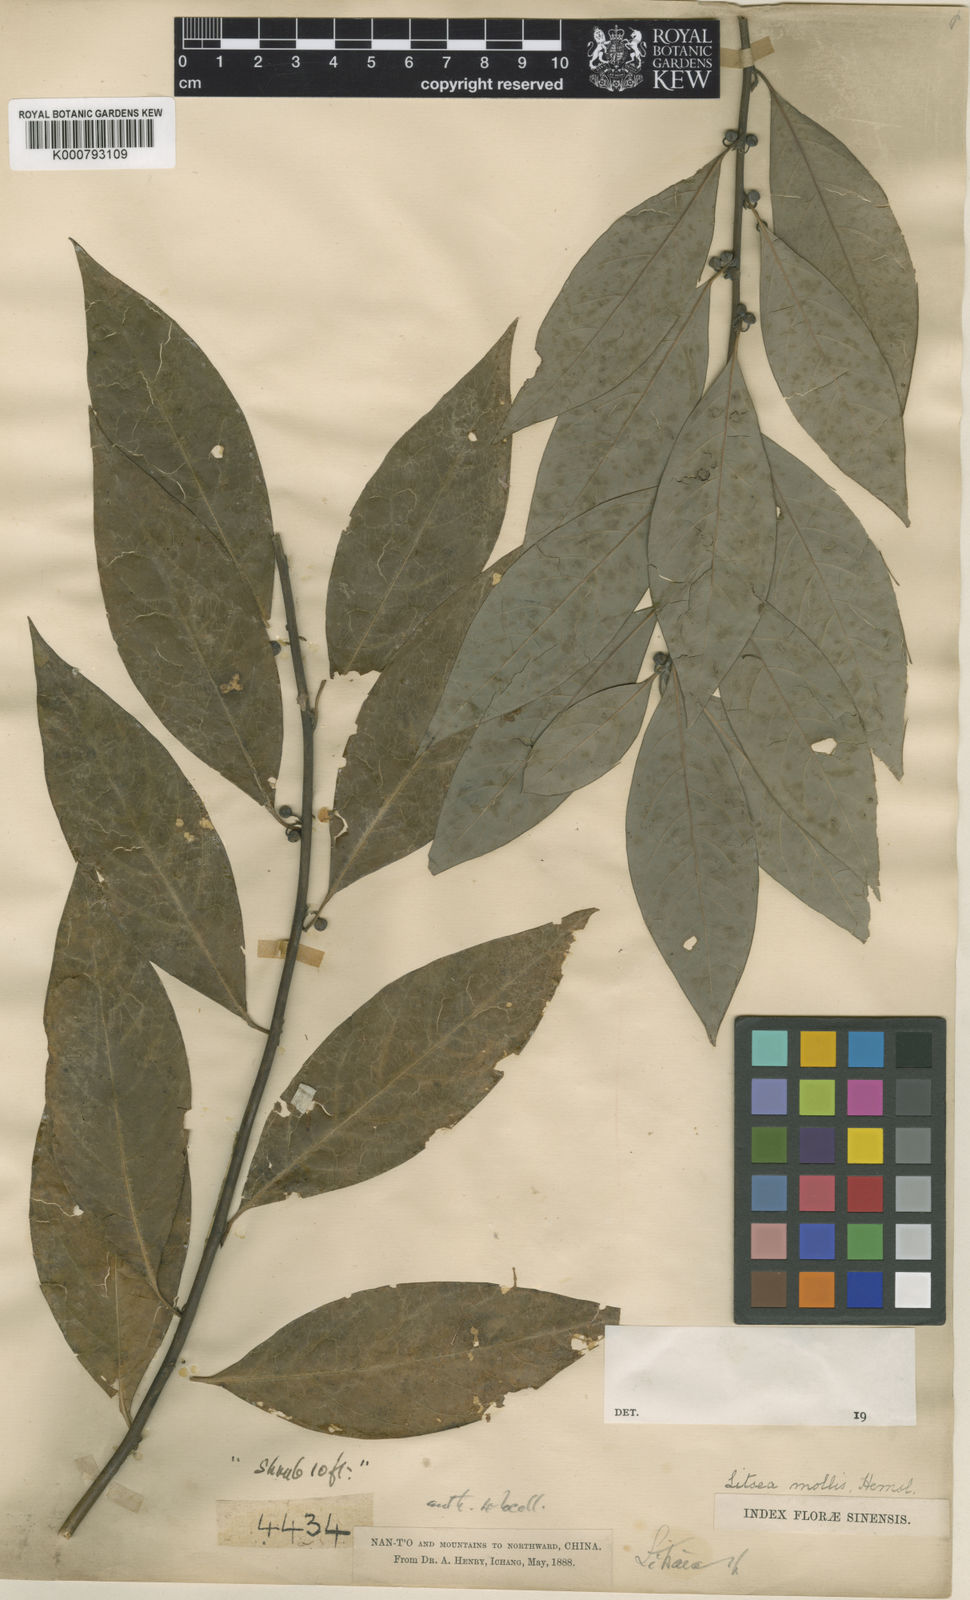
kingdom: Plantae
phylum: Tracheophyta
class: Magnoliopsida
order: Laurales
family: Lauraceae
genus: Litsea
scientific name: Litsea euosma
